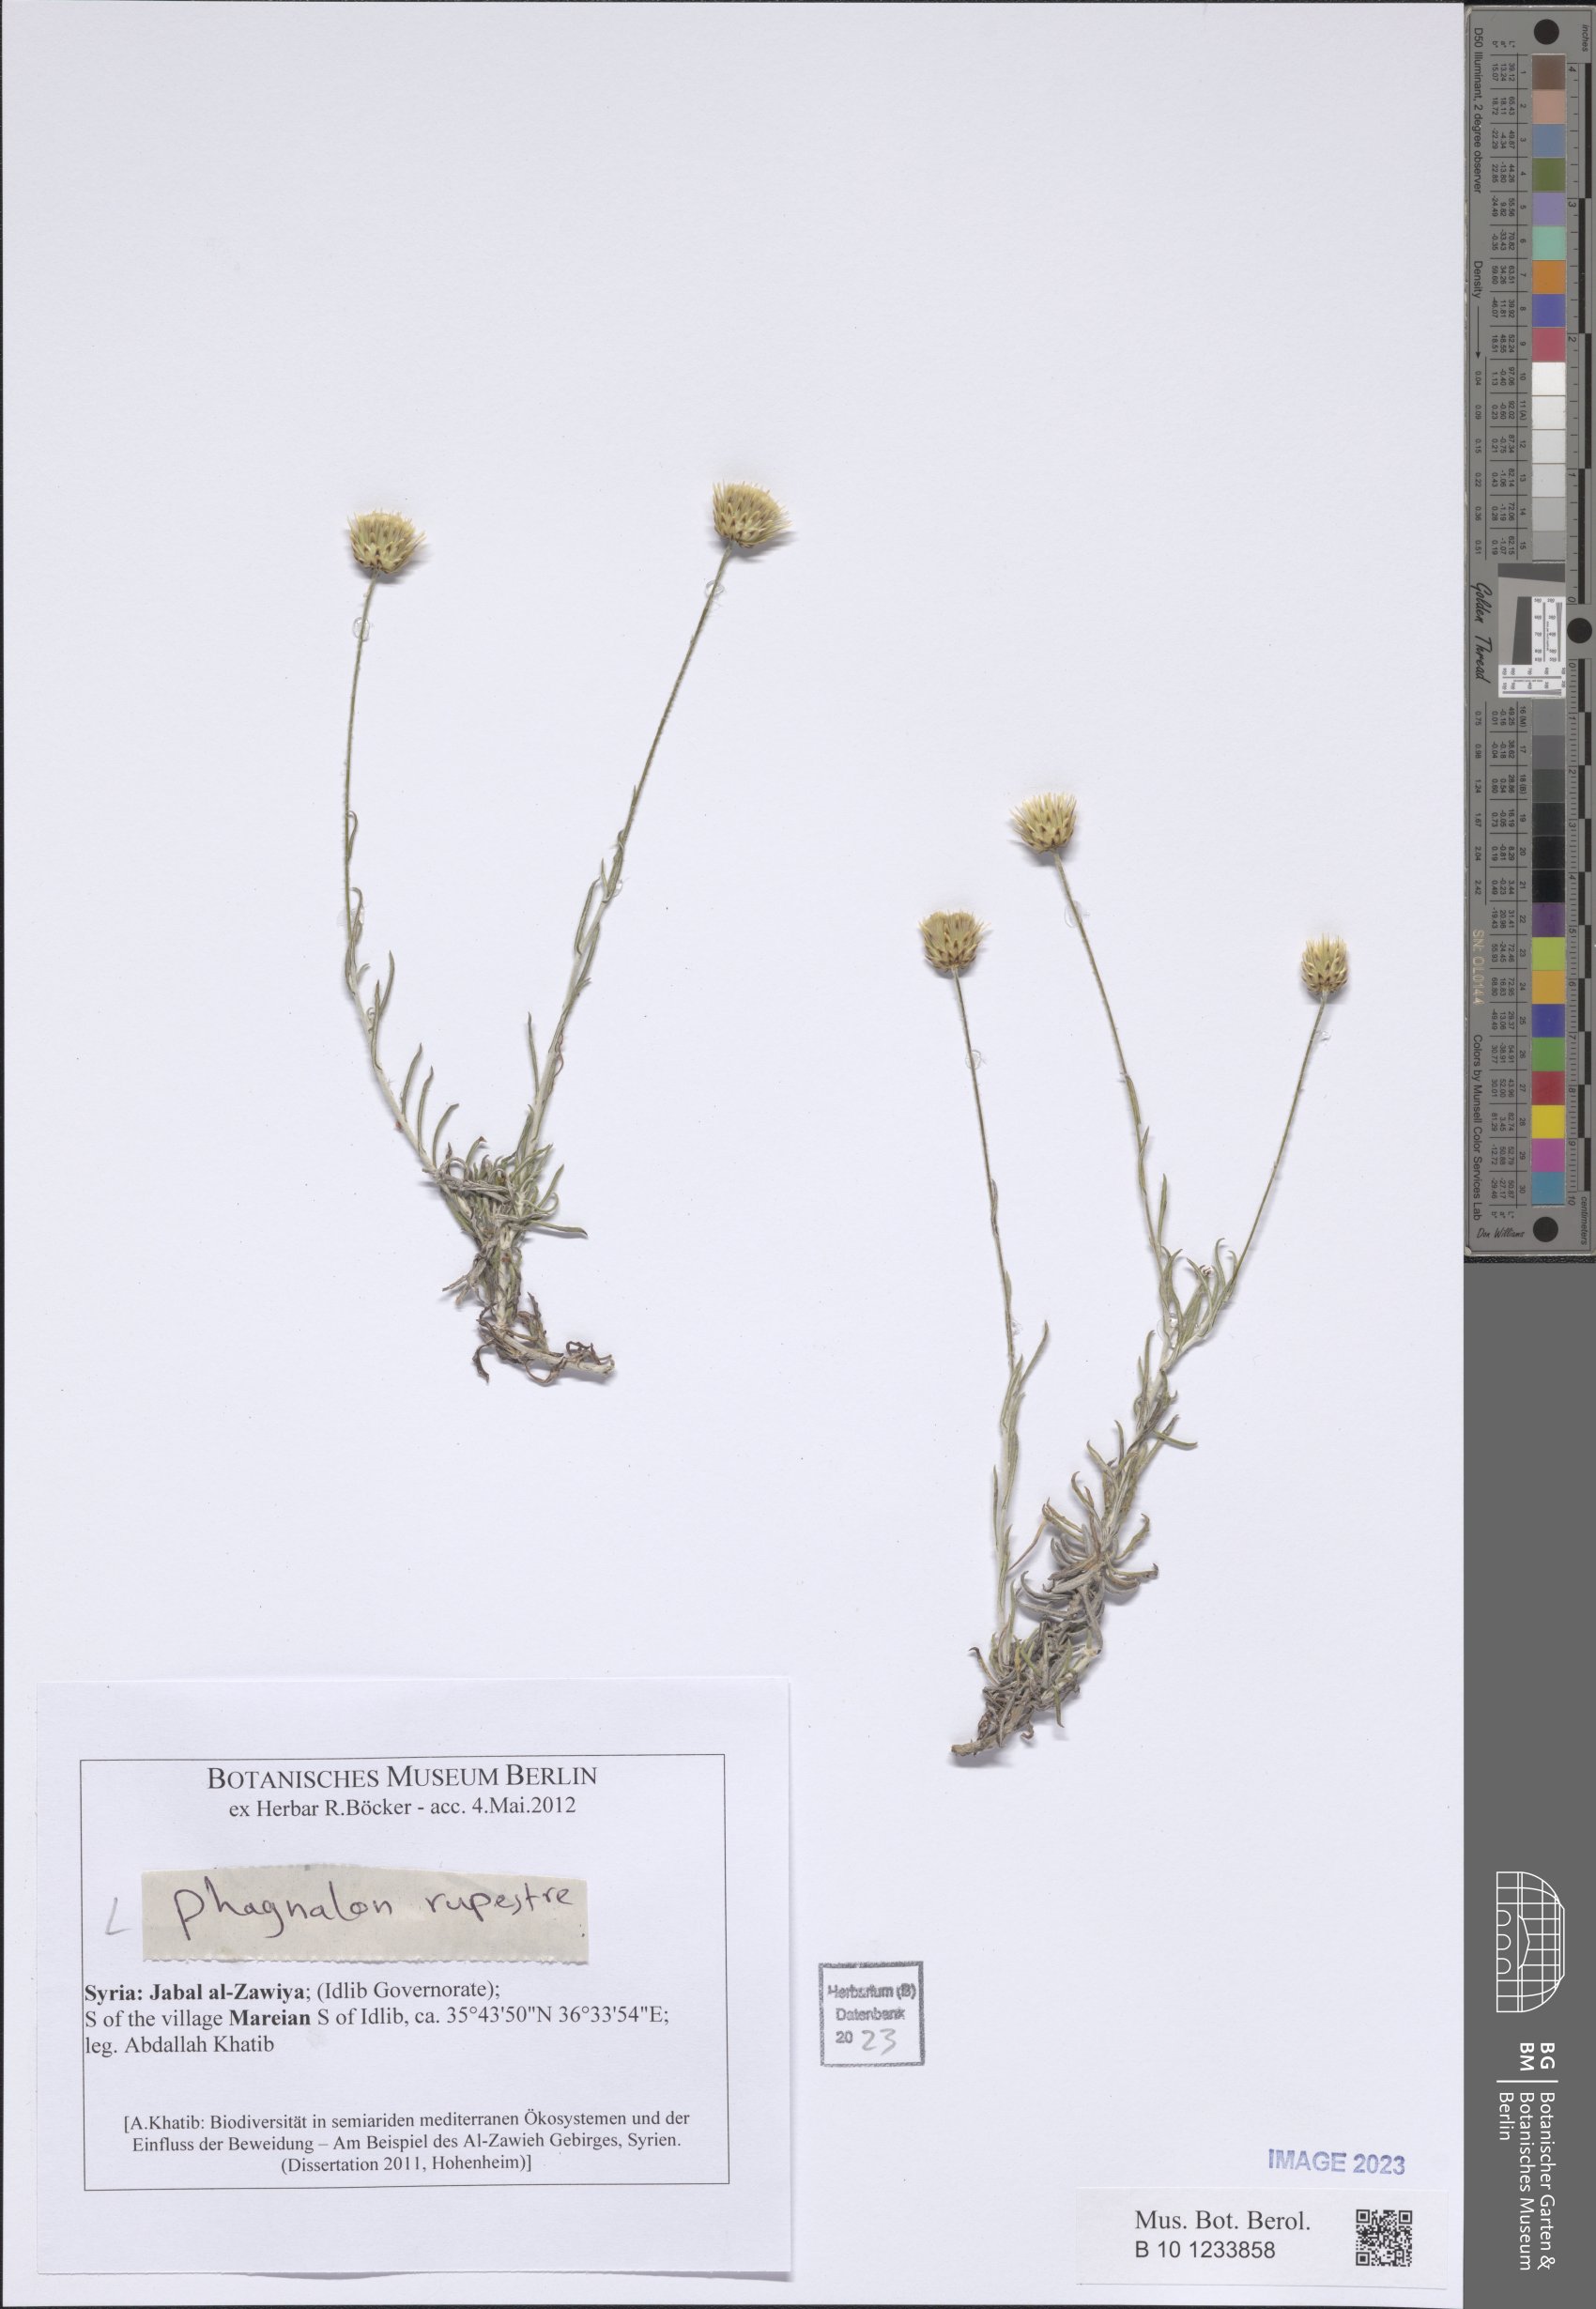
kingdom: Plantae
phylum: Tracheophyta
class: Magnoliopsida
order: Asterales
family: Asteraceae
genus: Phagnalon
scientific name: Phagnalon rupestre
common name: Rock phagnalon
